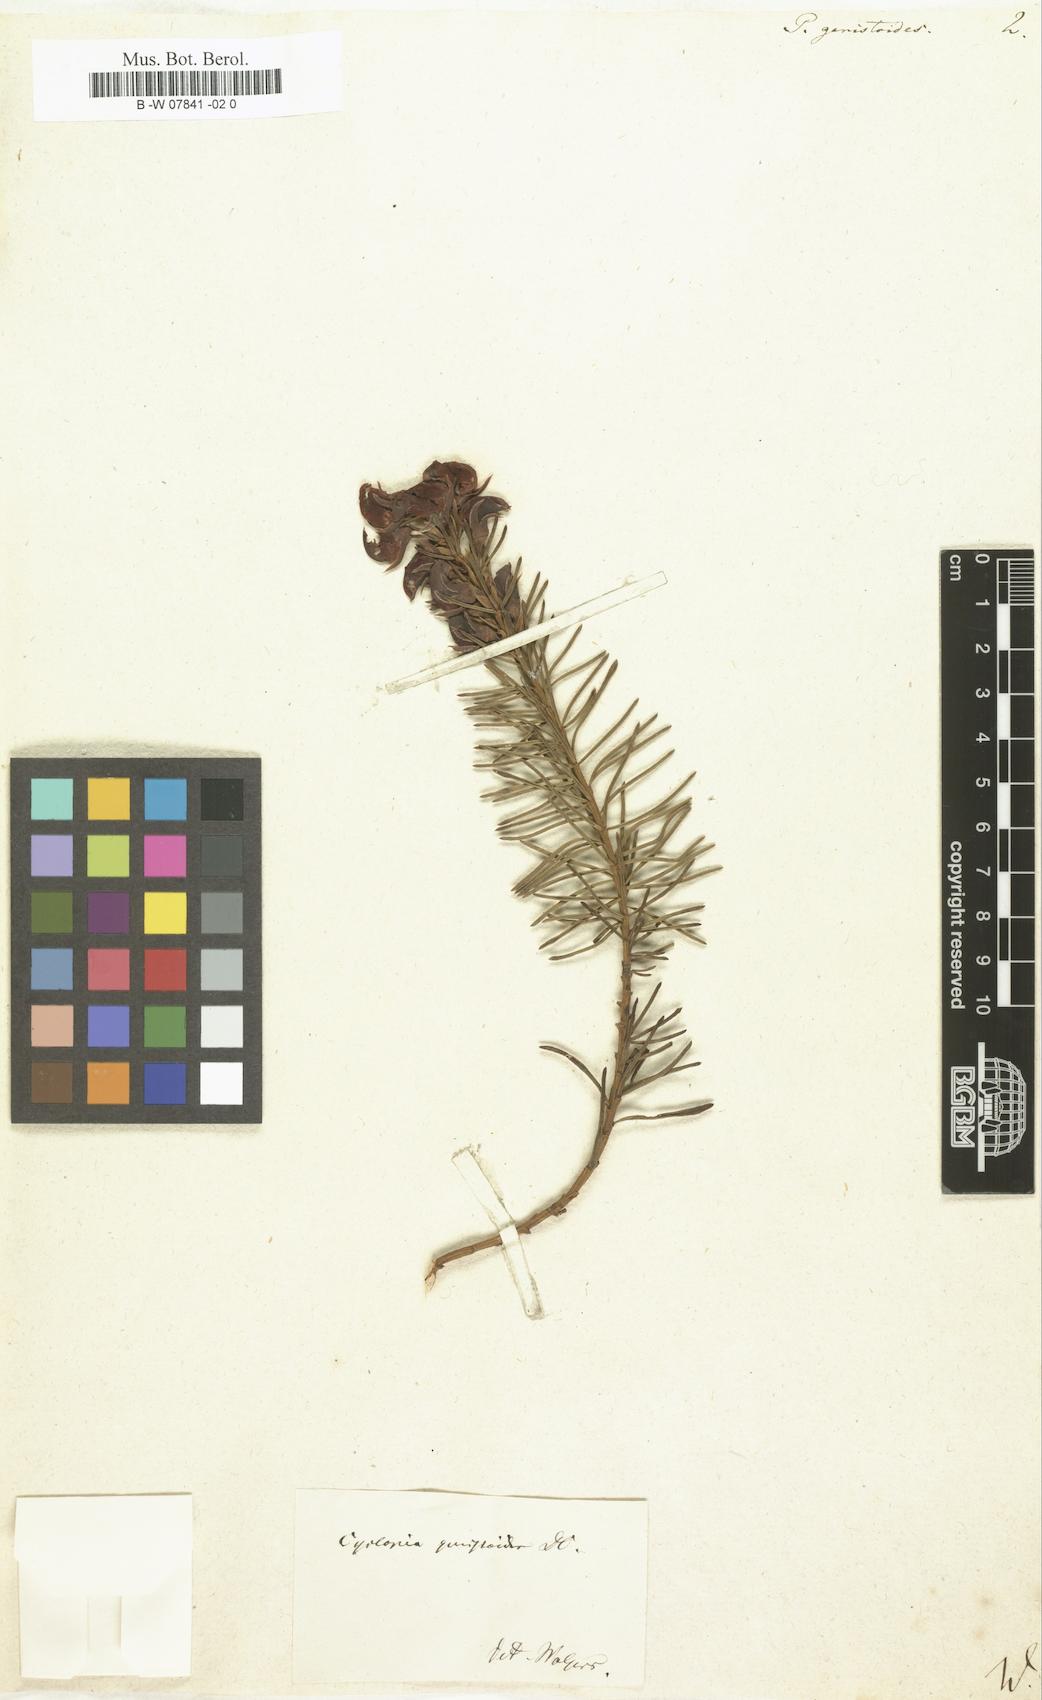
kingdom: Plantae
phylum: Tracheophyta
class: Magnoliopsida
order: Fabales
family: Fabaceae
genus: Cyclopia
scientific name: Cyclopia galioides
